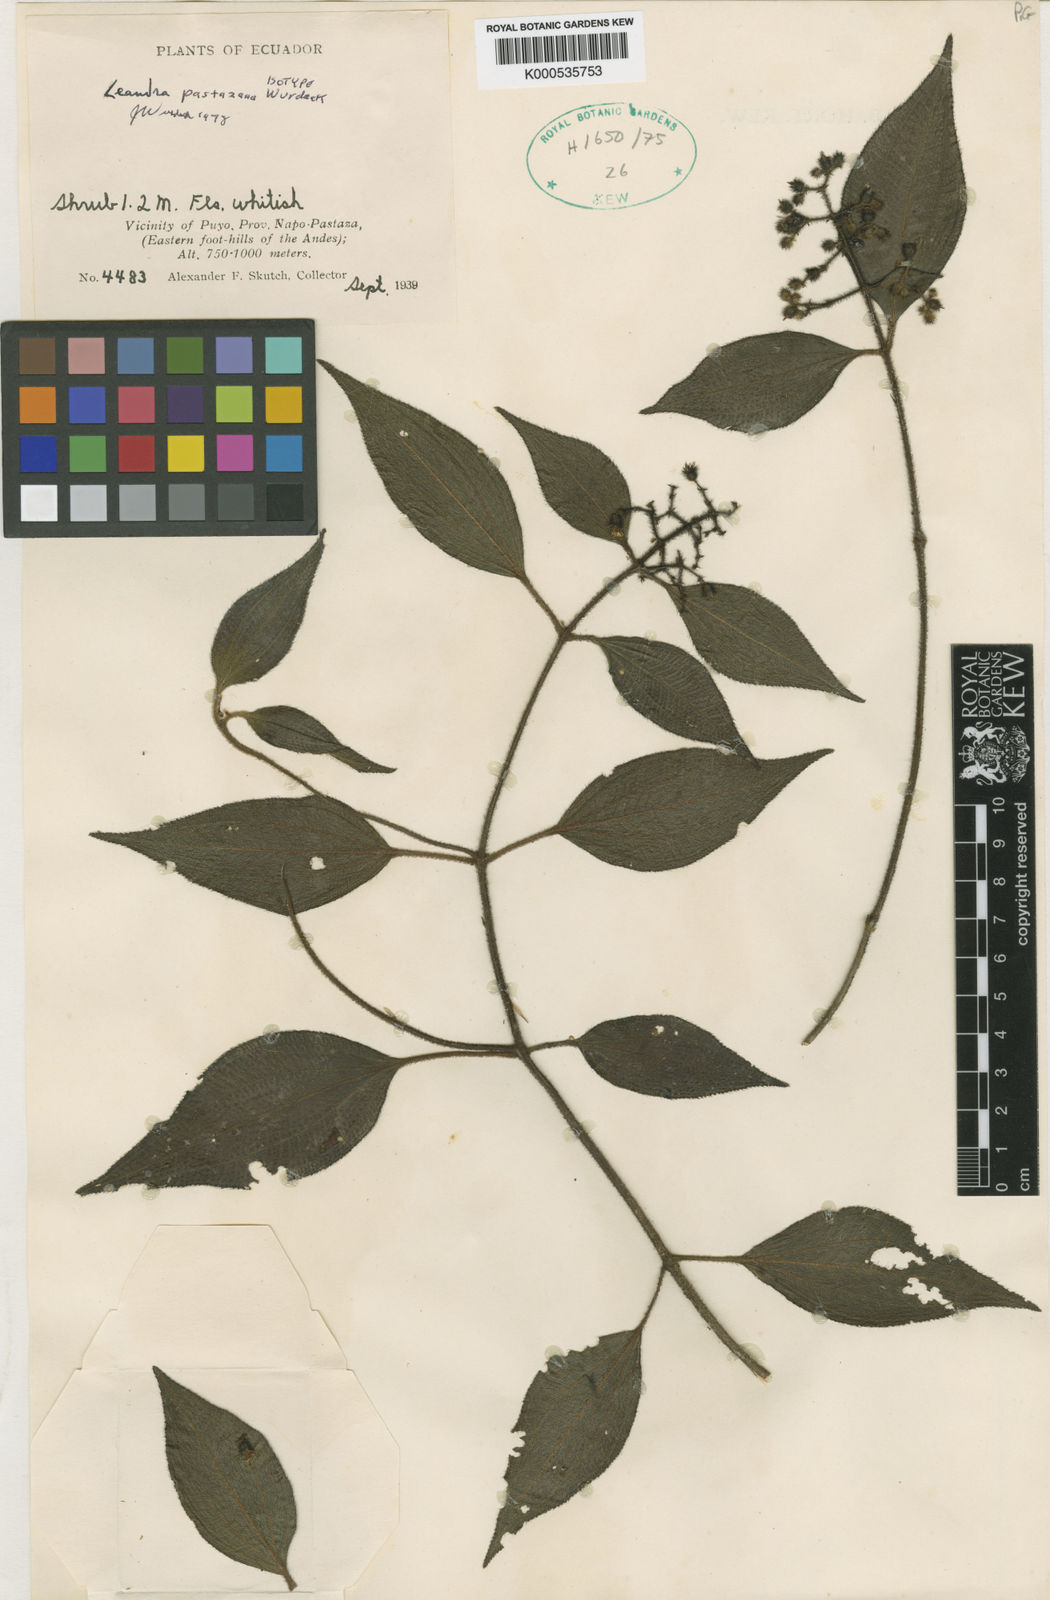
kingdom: Plantae
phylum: Tracheophyta
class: Magnoliopsida
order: Myrtales
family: Melastomataceae
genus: Miconia
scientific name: Miconia secunpastazana
